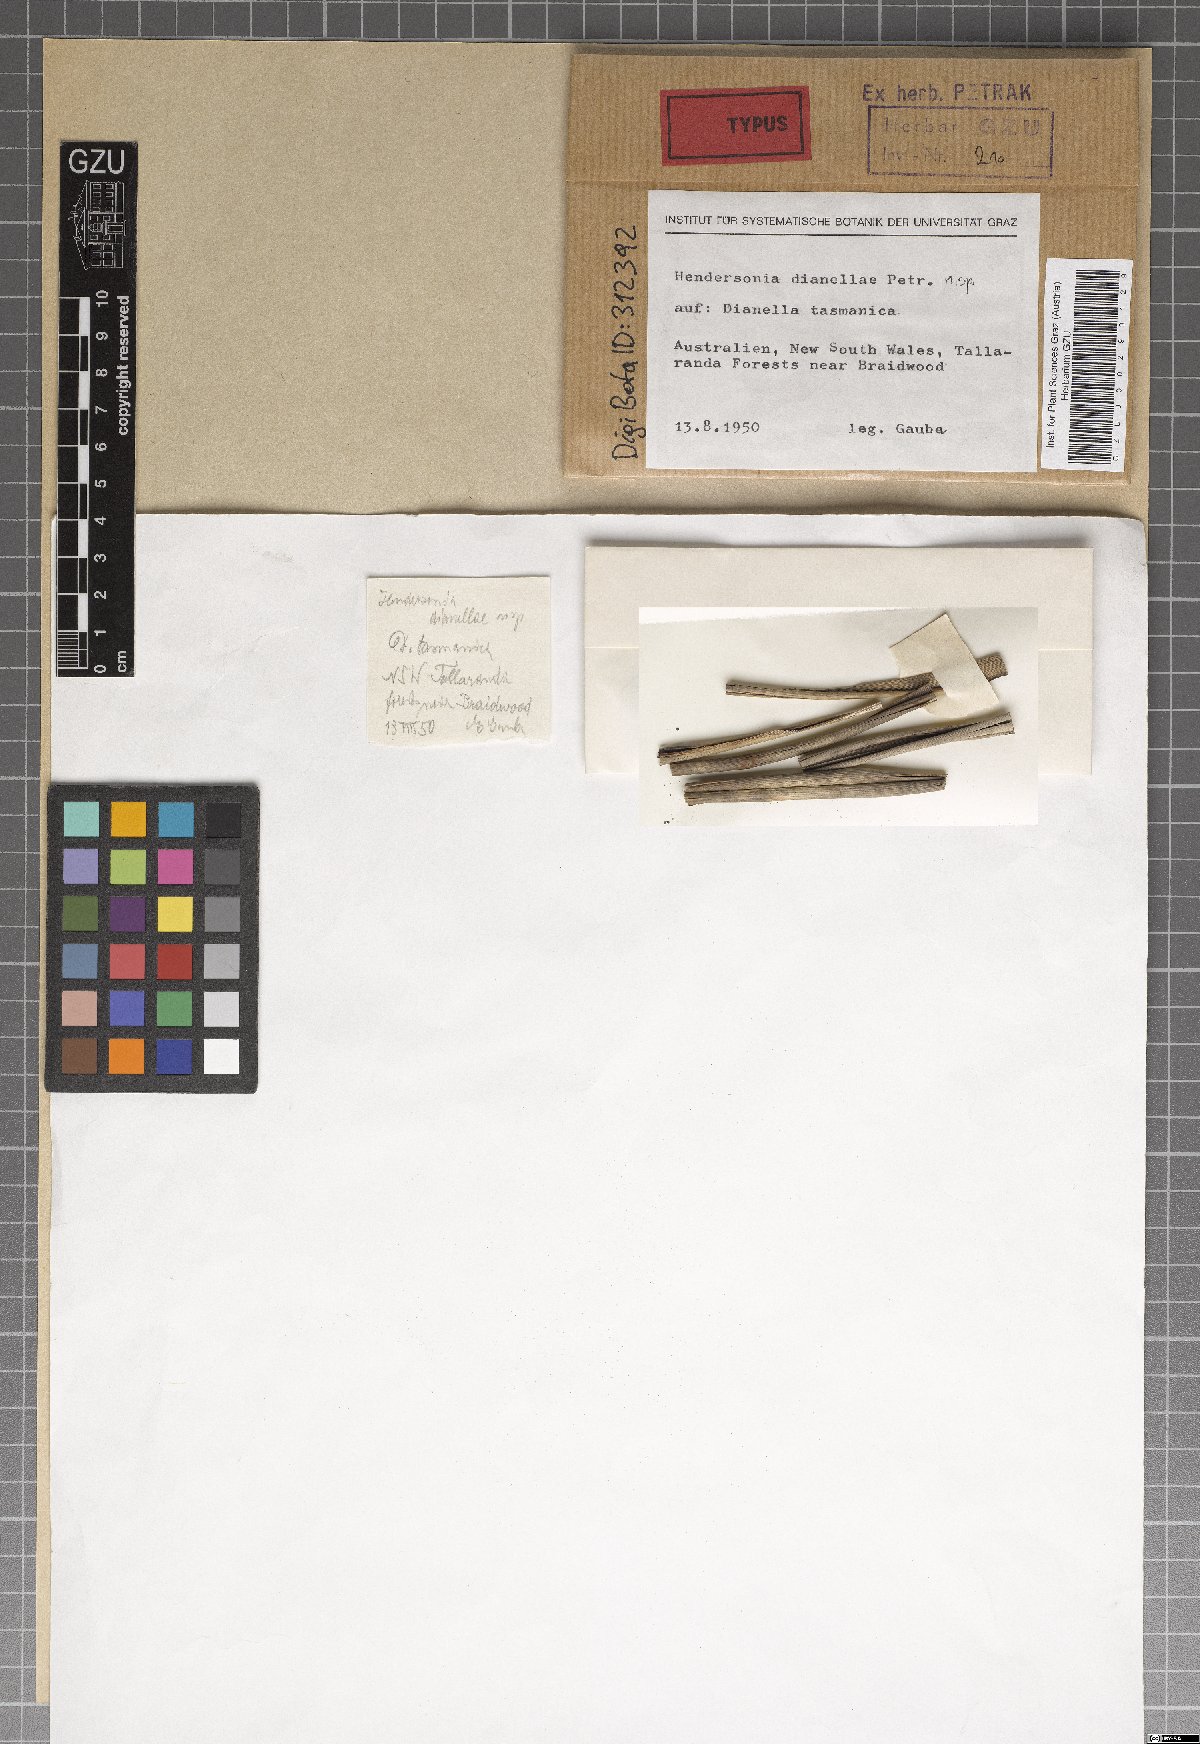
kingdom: Fungi
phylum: Ascomycota
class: Dothideomycetes
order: Pleosporales
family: Phaeosphaeriaceae
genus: Hendersonia
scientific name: Hendersonia dianellae
